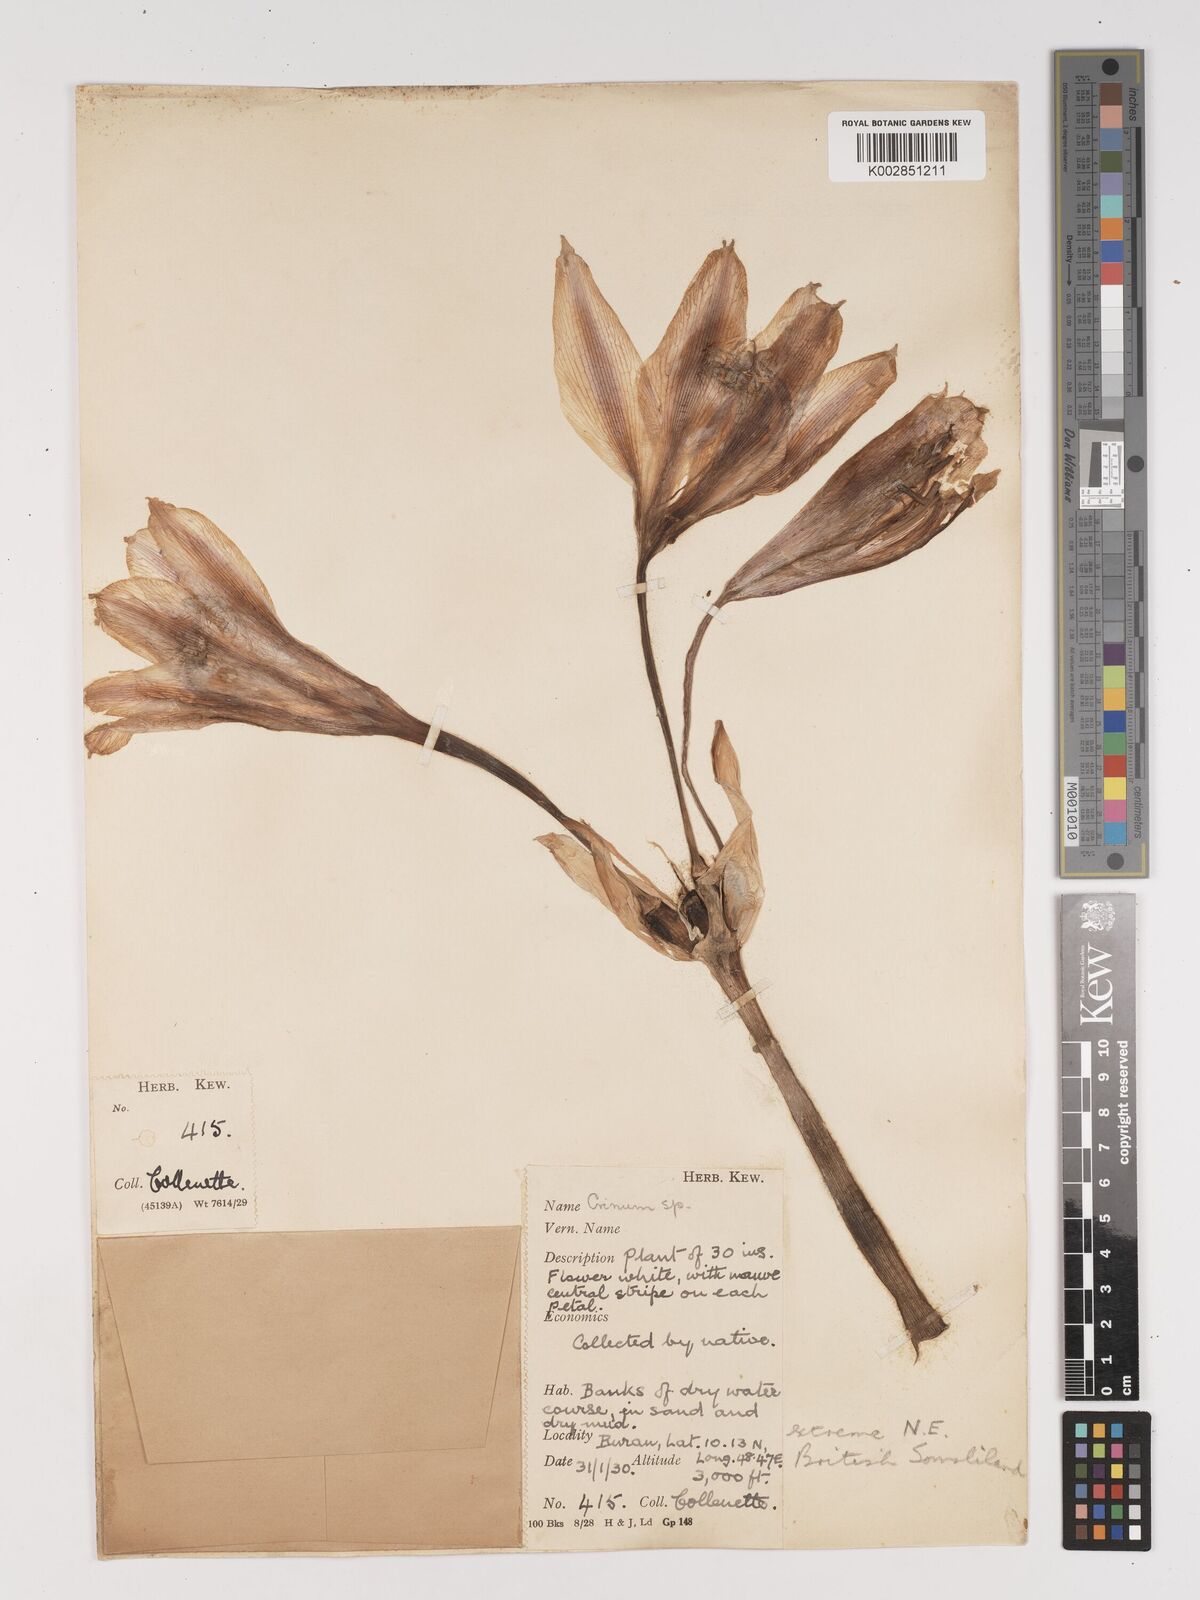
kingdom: Plantae
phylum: Tracheophyta
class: Liliopsida
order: Asparagales
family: Amaryllidaceae
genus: Crinum
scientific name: Crinum zeylanicum
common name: Ceylon swamplily
